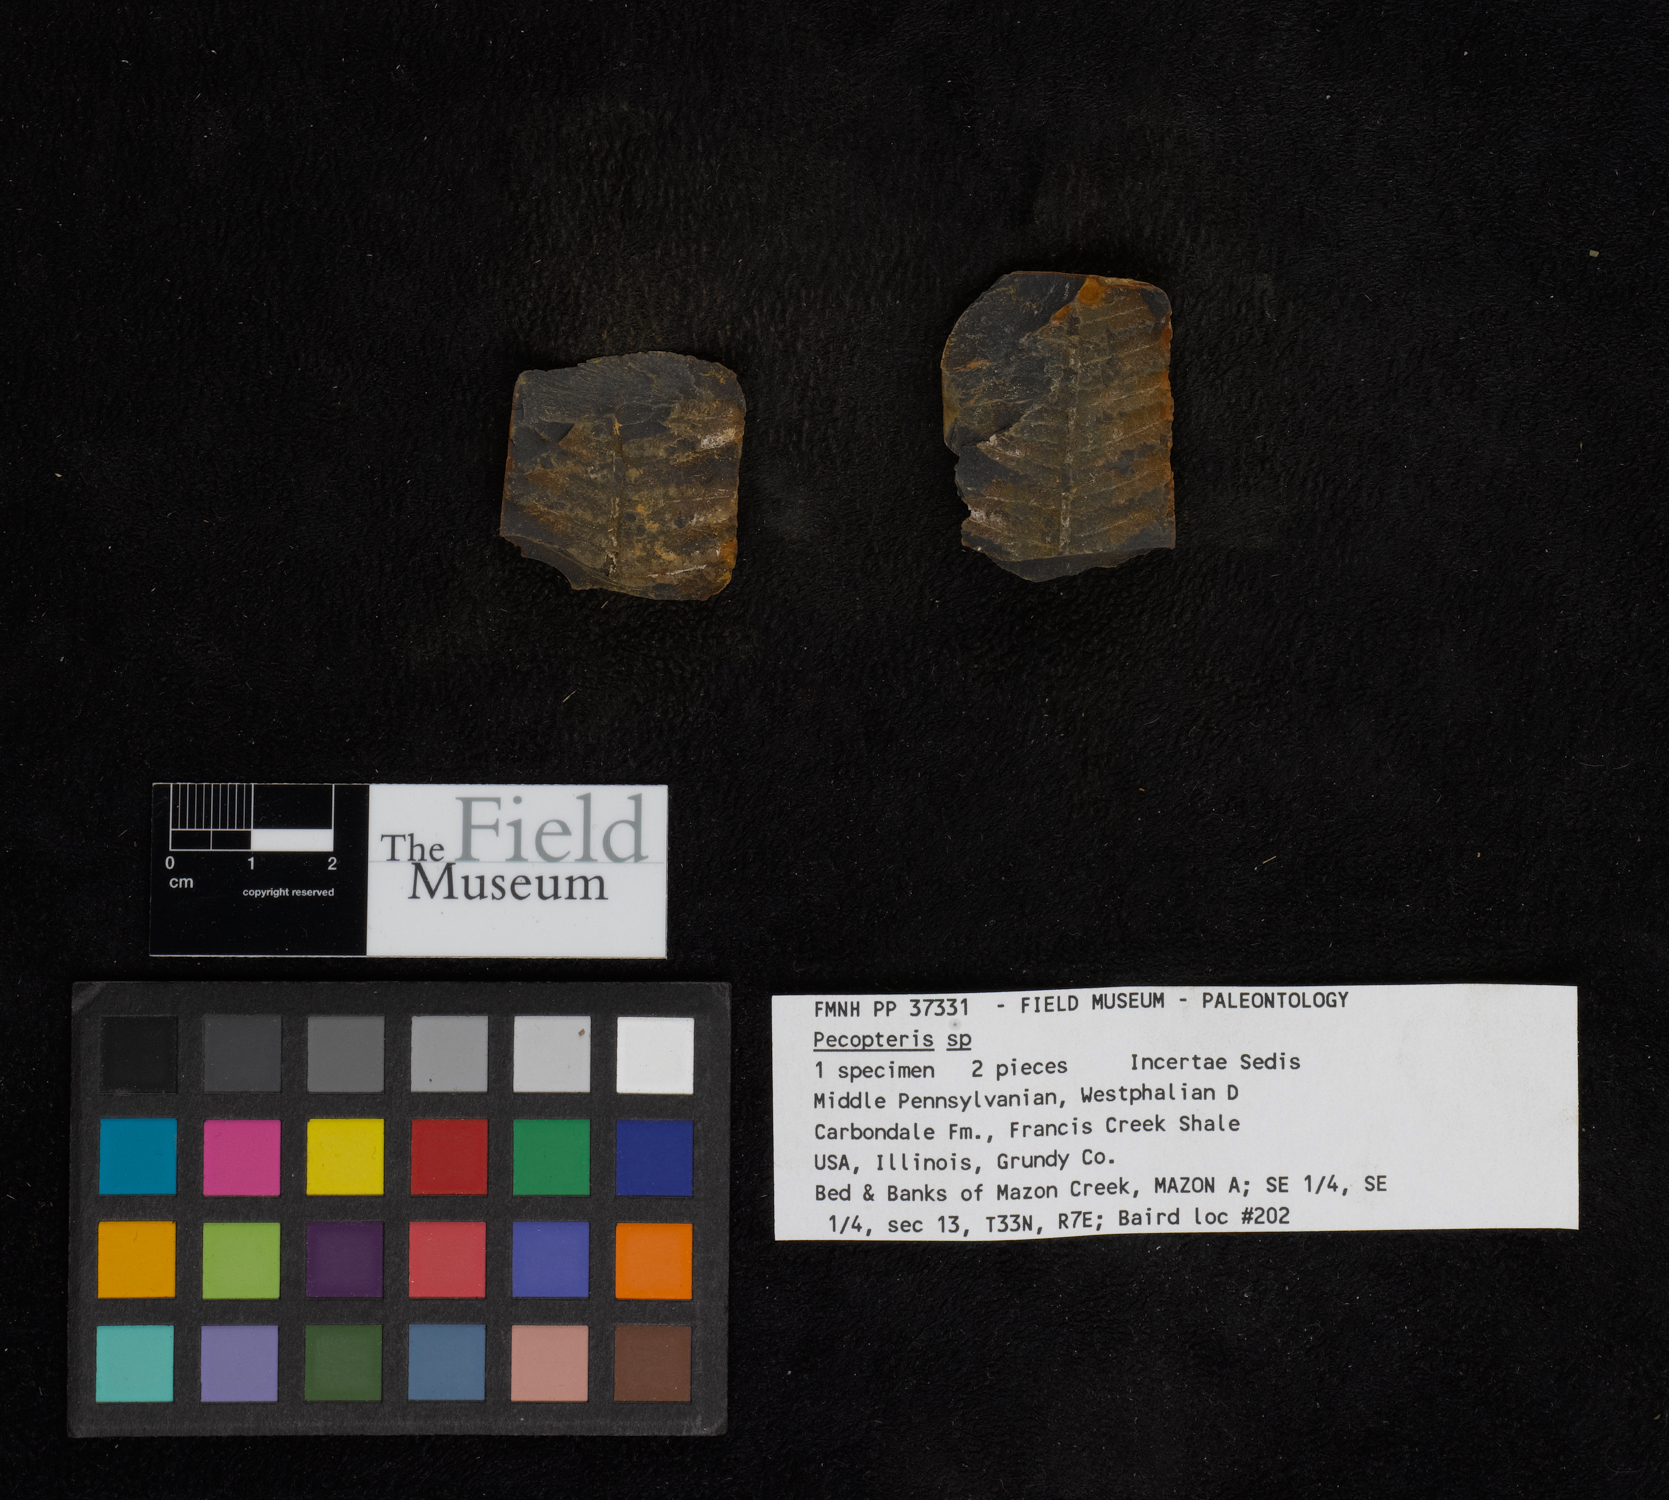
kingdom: Plantae
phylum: Tracheophyta
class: Polypodiopsida
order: Marattiales
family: Asterothecaceae
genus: Pecopteris
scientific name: Pecopteris
